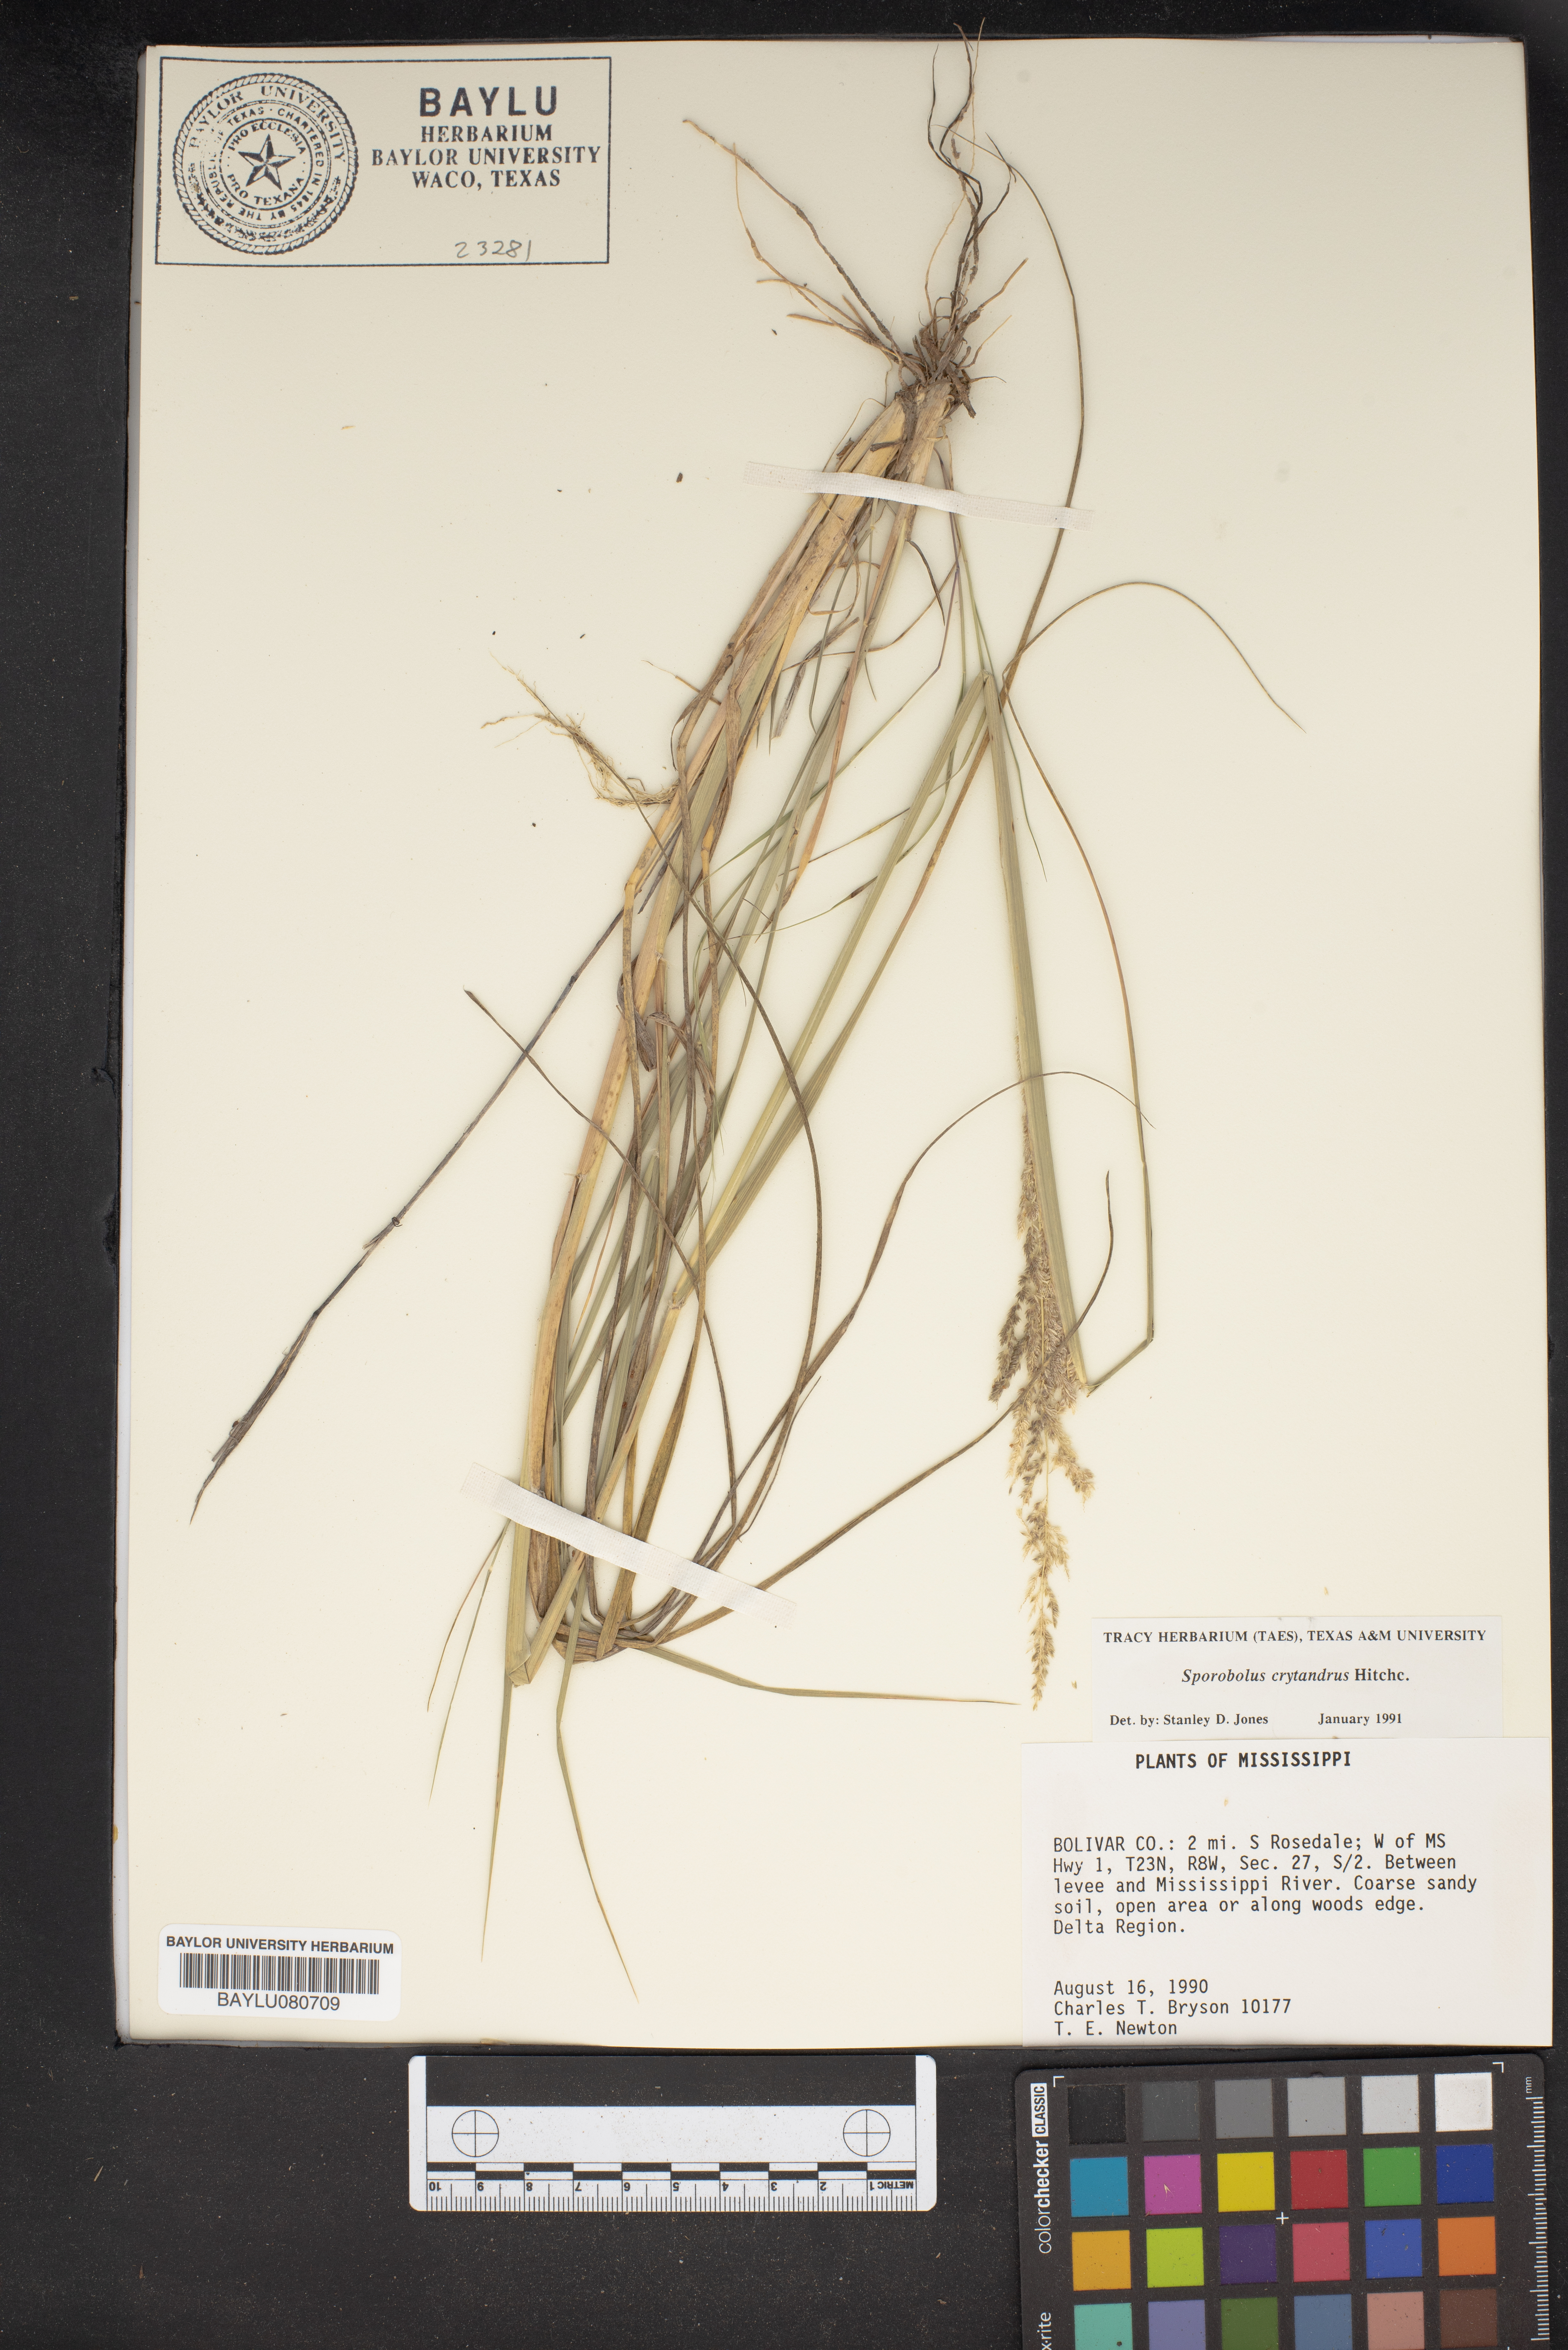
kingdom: Plantae
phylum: Tracheophyta
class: Liliopsida
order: Poales
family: Poaceae
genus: Sporobolus
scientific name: Sporobolus cryptandrus
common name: Sand dropseed
